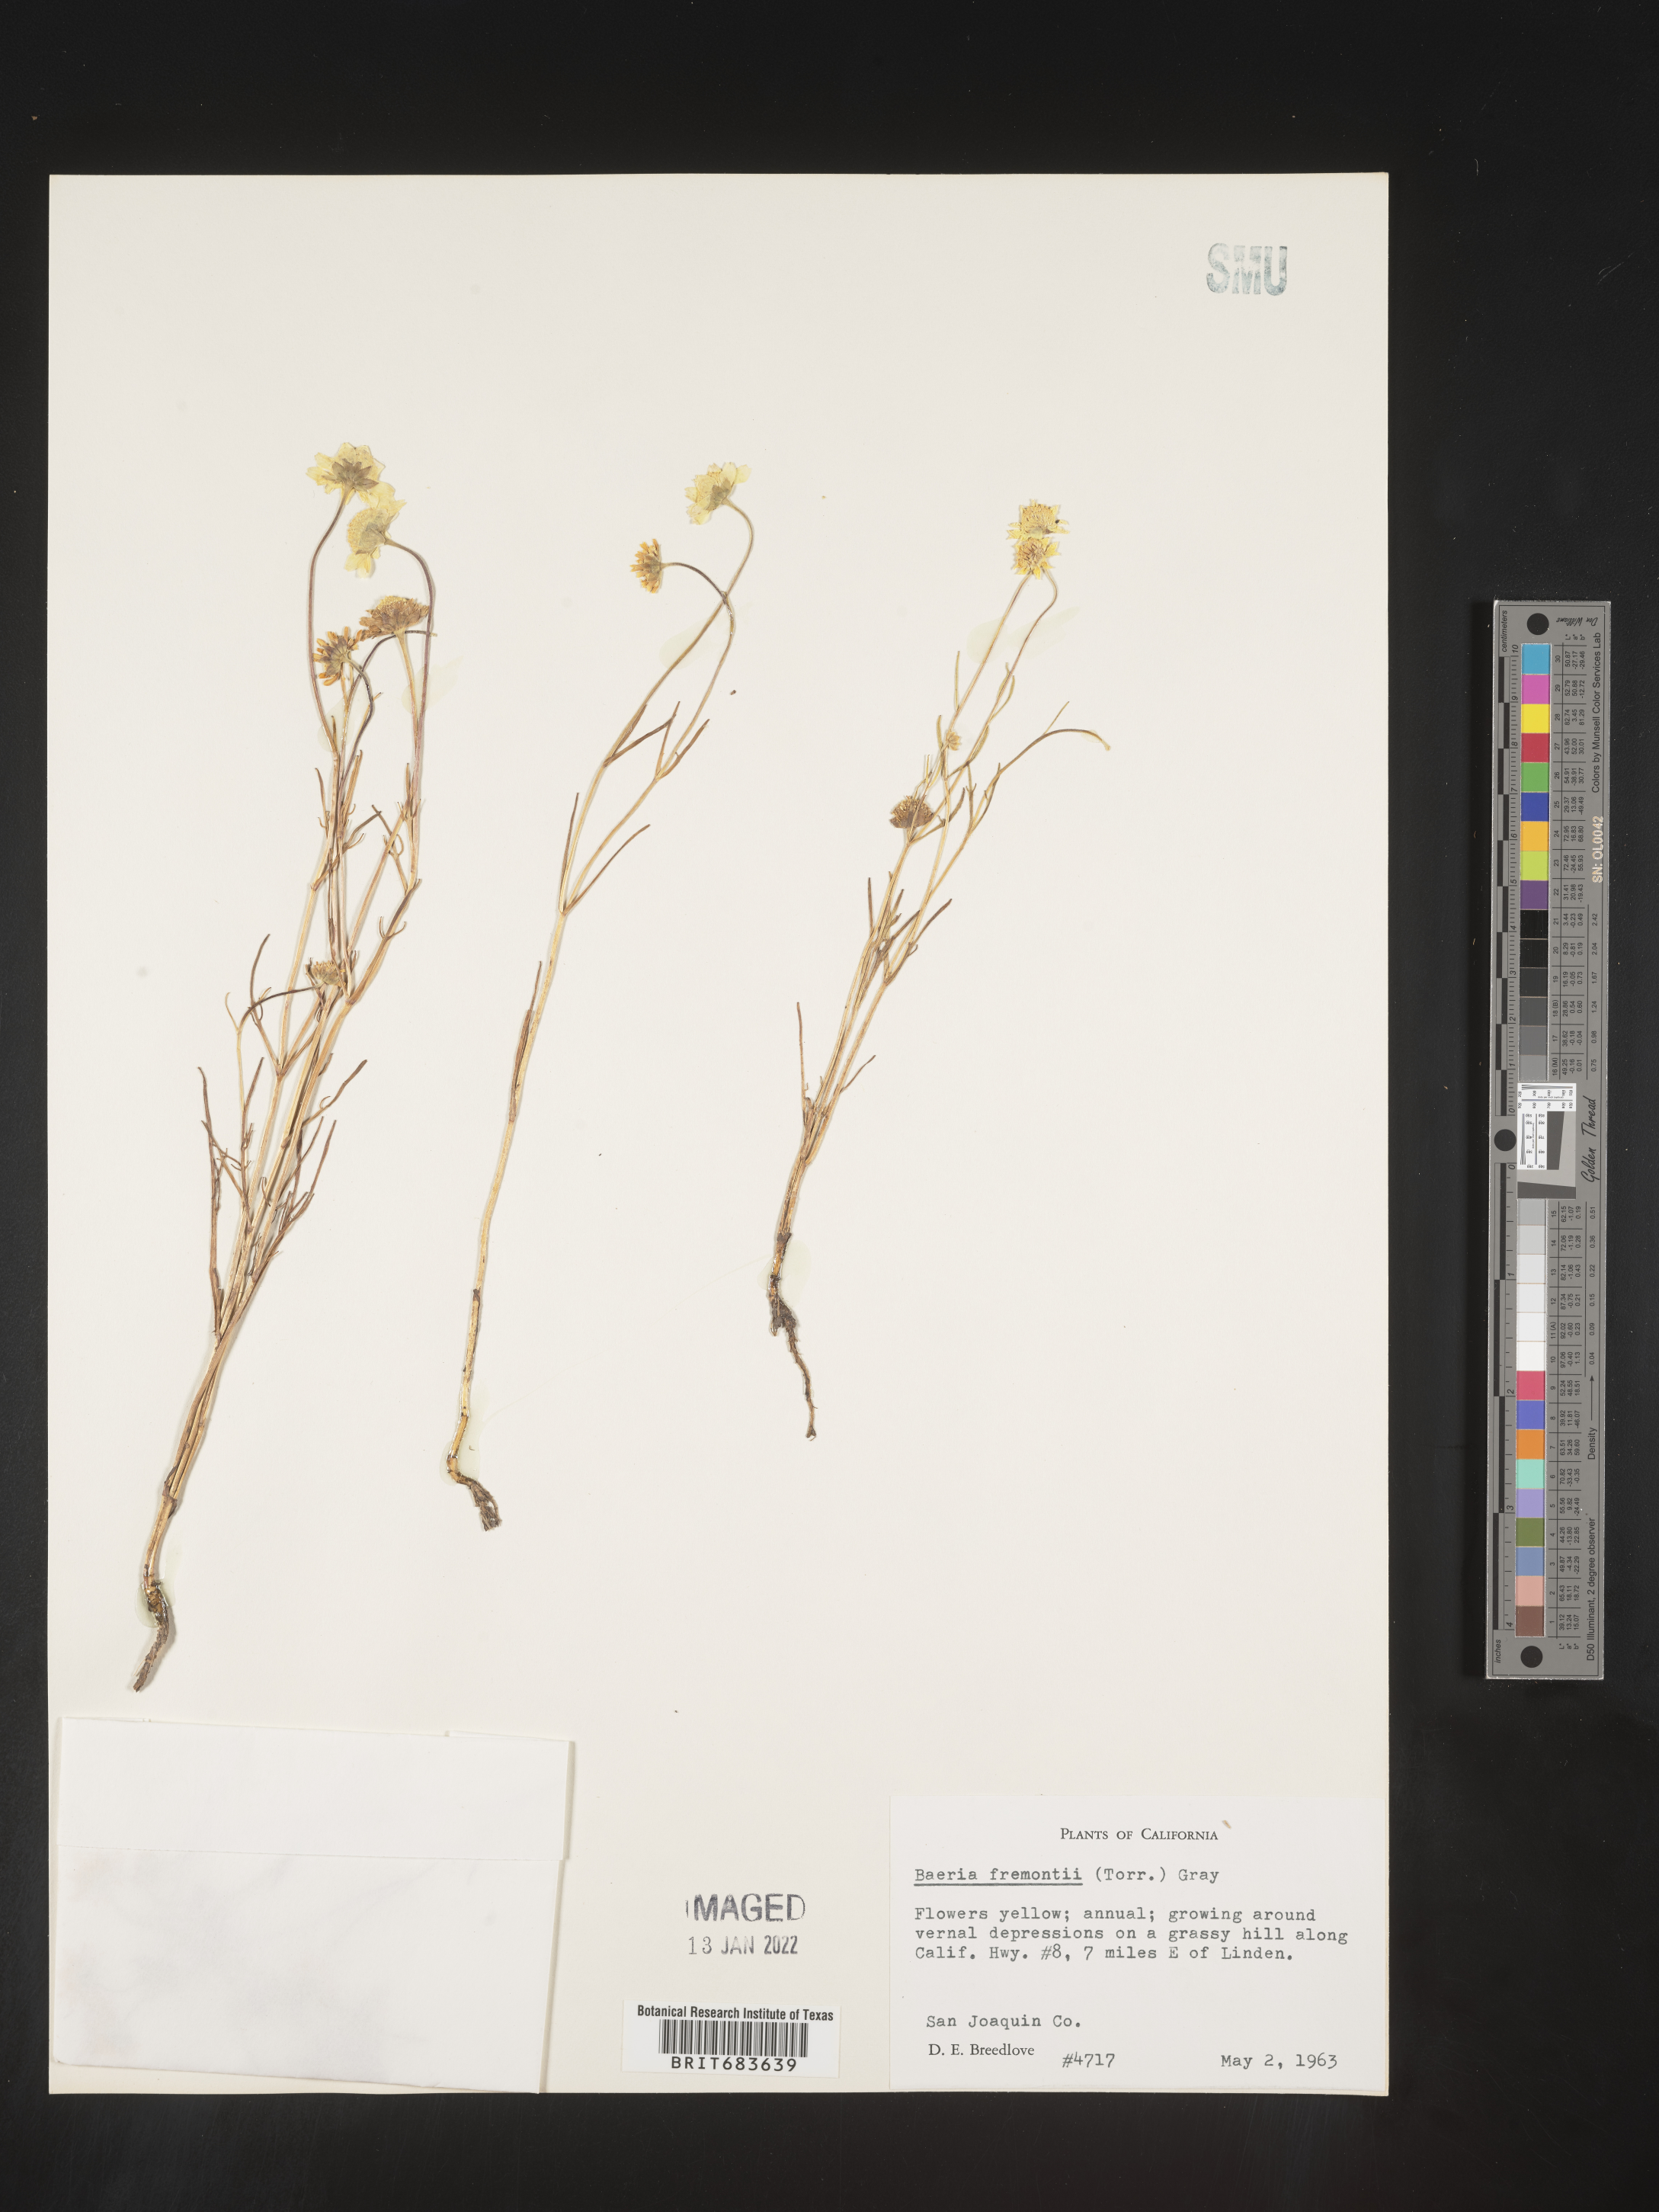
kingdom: Plantae
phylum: Tracheophyta
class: Magnoliopsida
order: Asterales
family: Asteraceae
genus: Lasthenia
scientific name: Lasthenia
